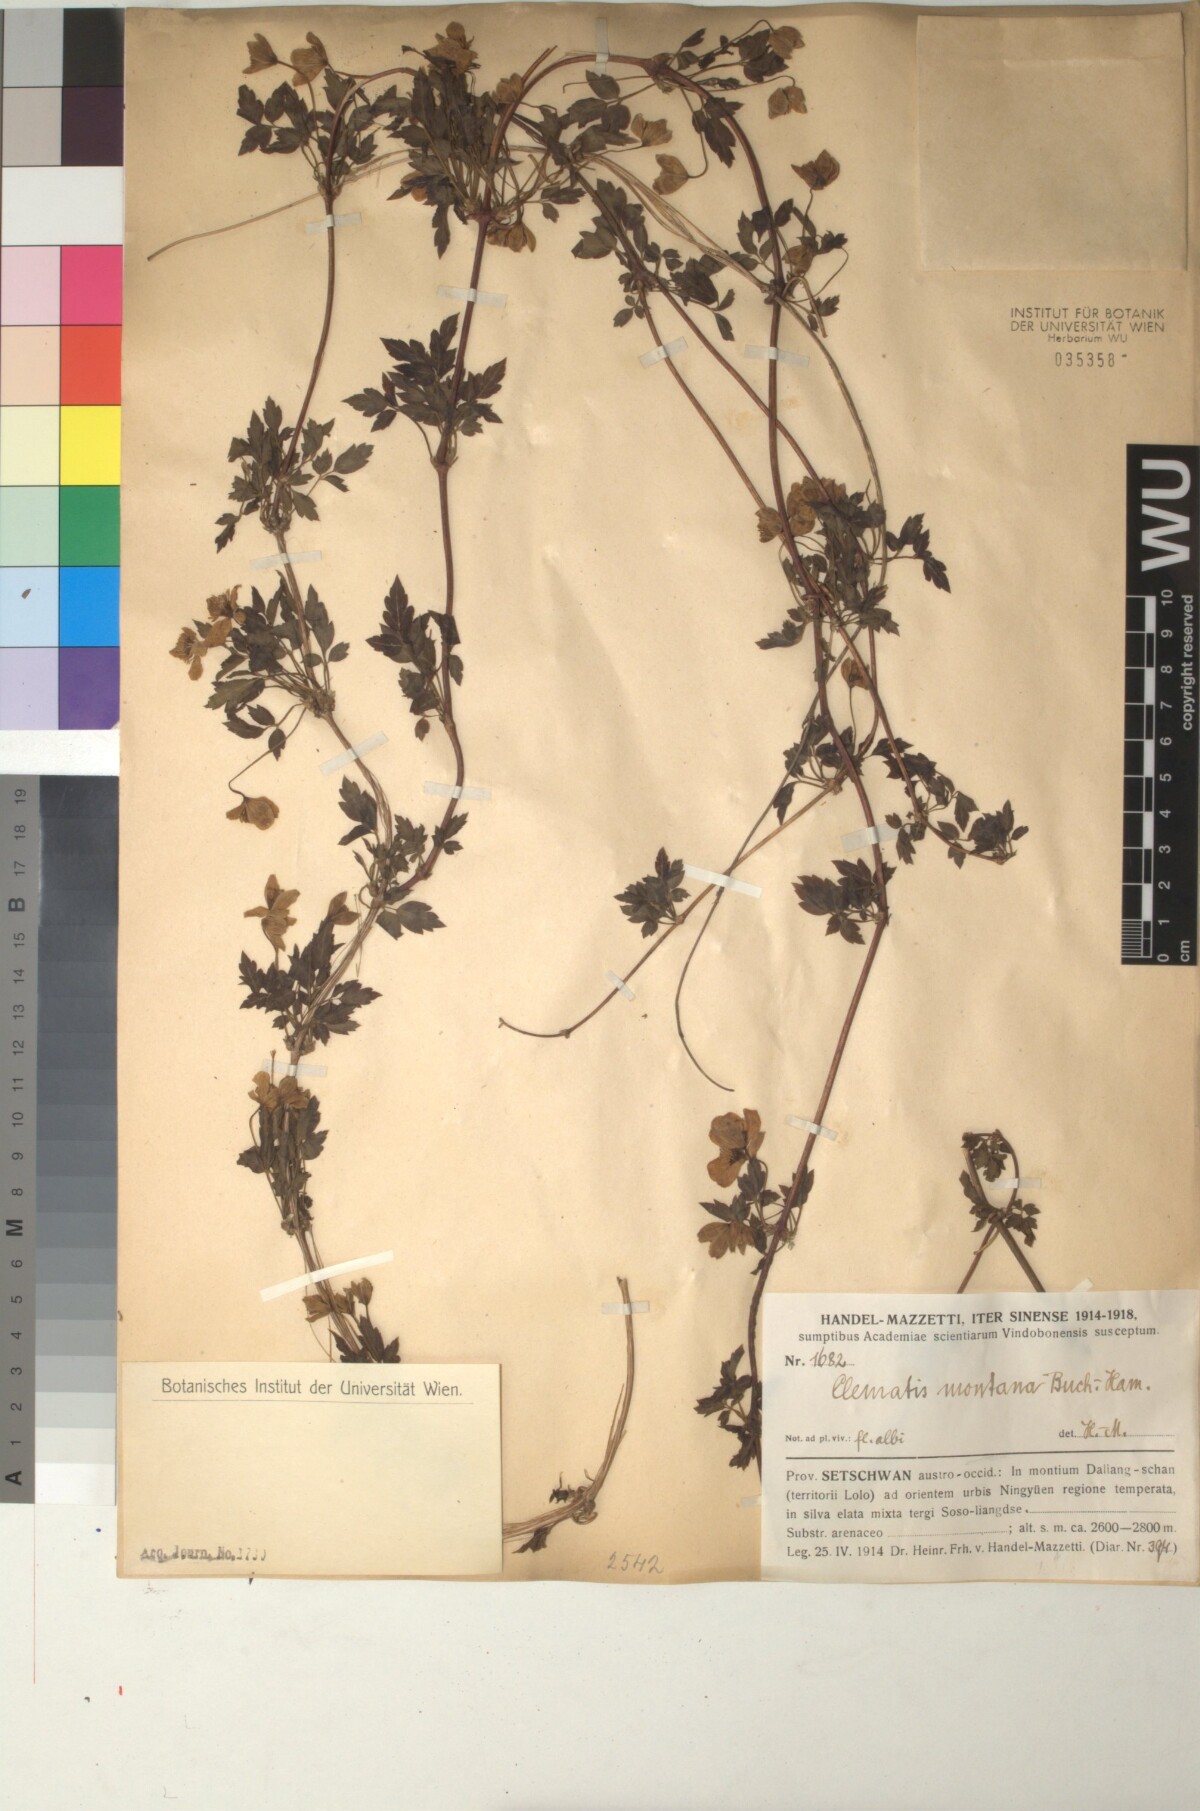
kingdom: Plantae
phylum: Tracheophyta
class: Magnoliopsida
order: Ranunculales
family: Ranunculaceae
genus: Clematis
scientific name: Clematis montana
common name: Himalayan clematis
